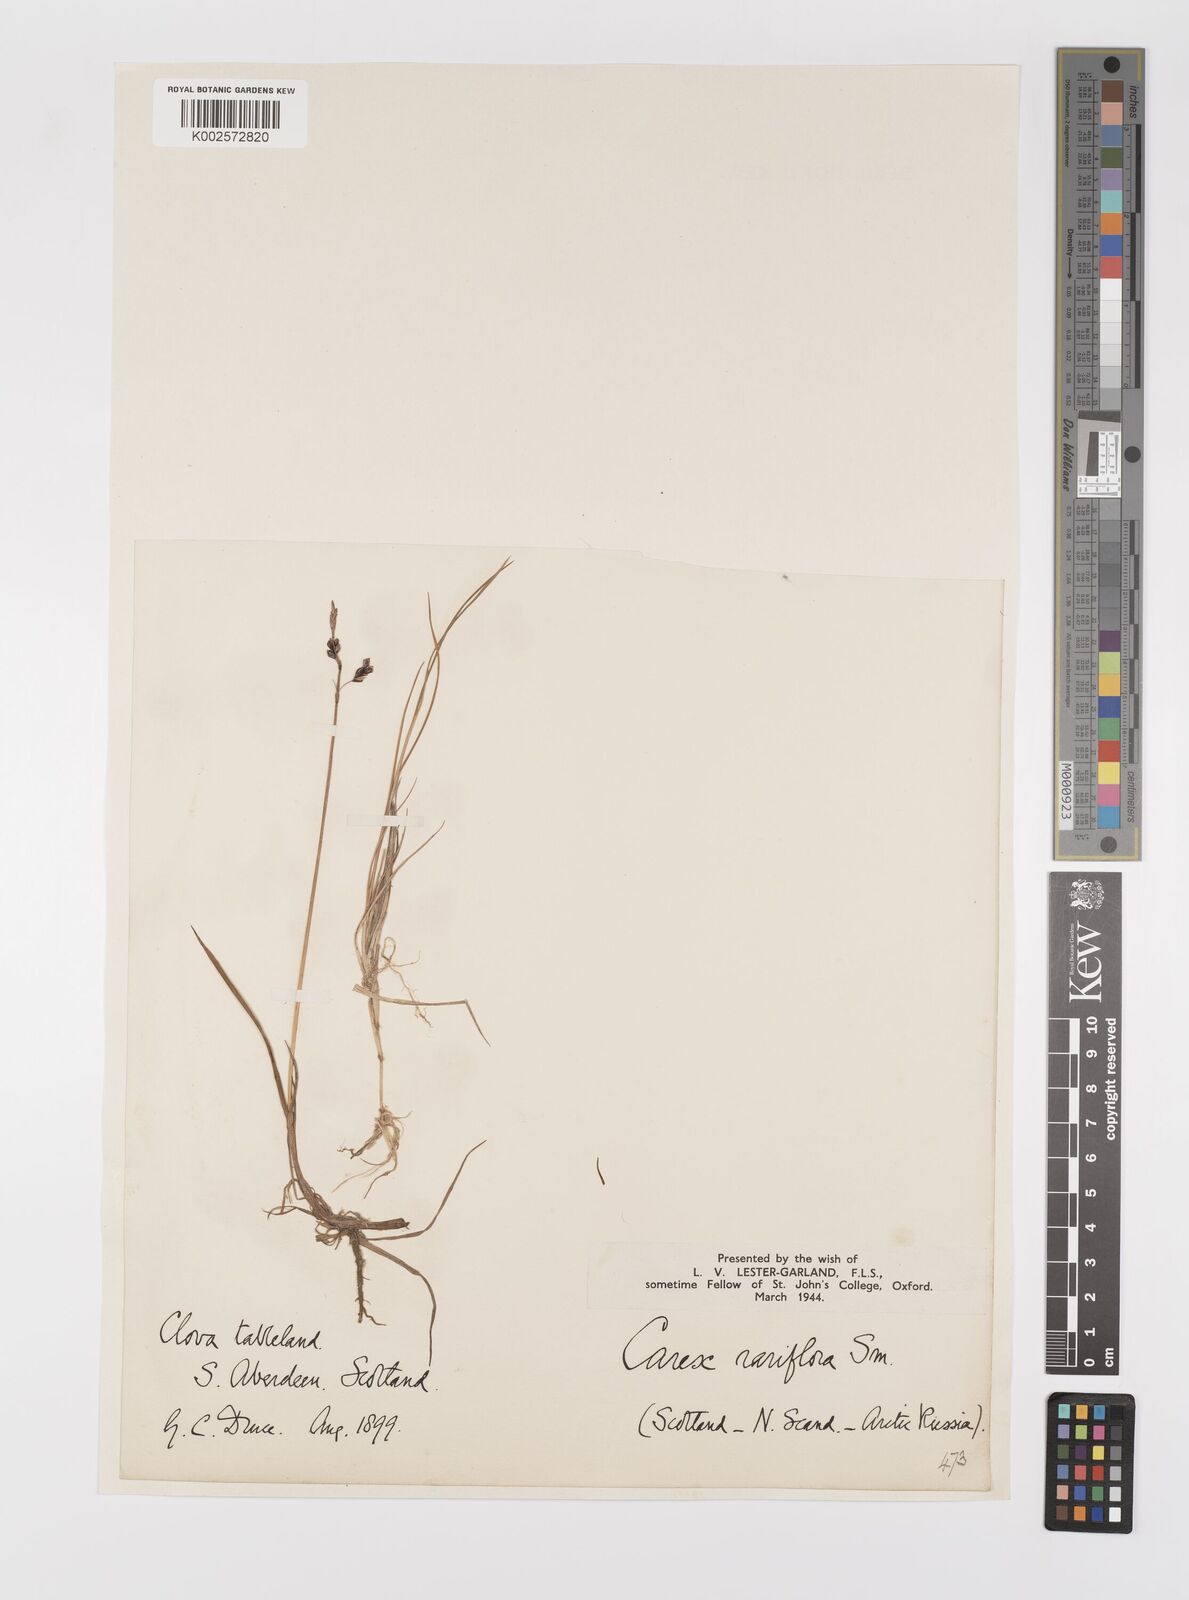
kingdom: Plantae
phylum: Tracheophyta
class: Liliopsida
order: Poales
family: Cyperaceae
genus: Carex
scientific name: Carex rariflora
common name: Loose-flowered alpine sedge
